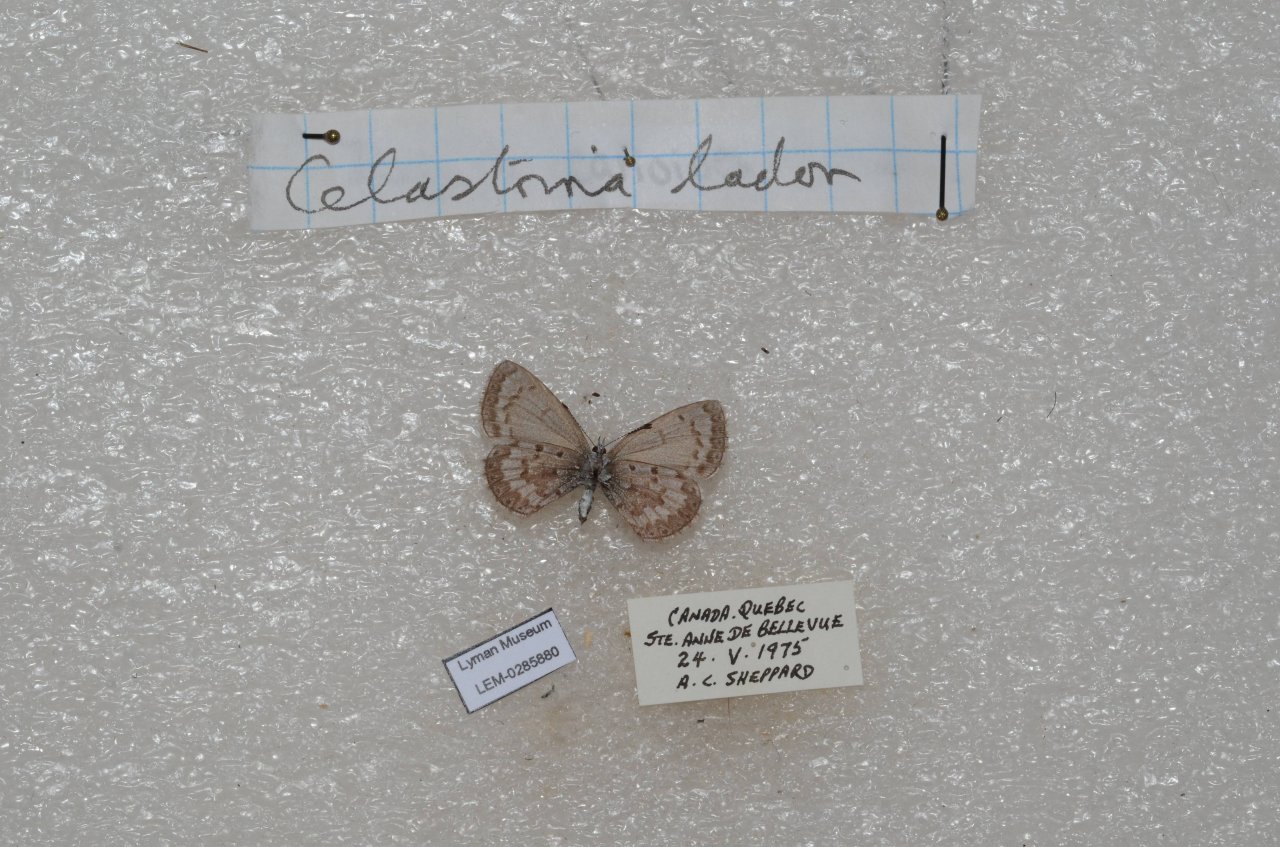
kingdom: Animalia
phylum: Arthropoda
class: Insecta
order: Lepidoptera
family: Lycaenidae
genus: Celastrina
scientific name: Celastrina lucia
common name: Northern Spring Azure
